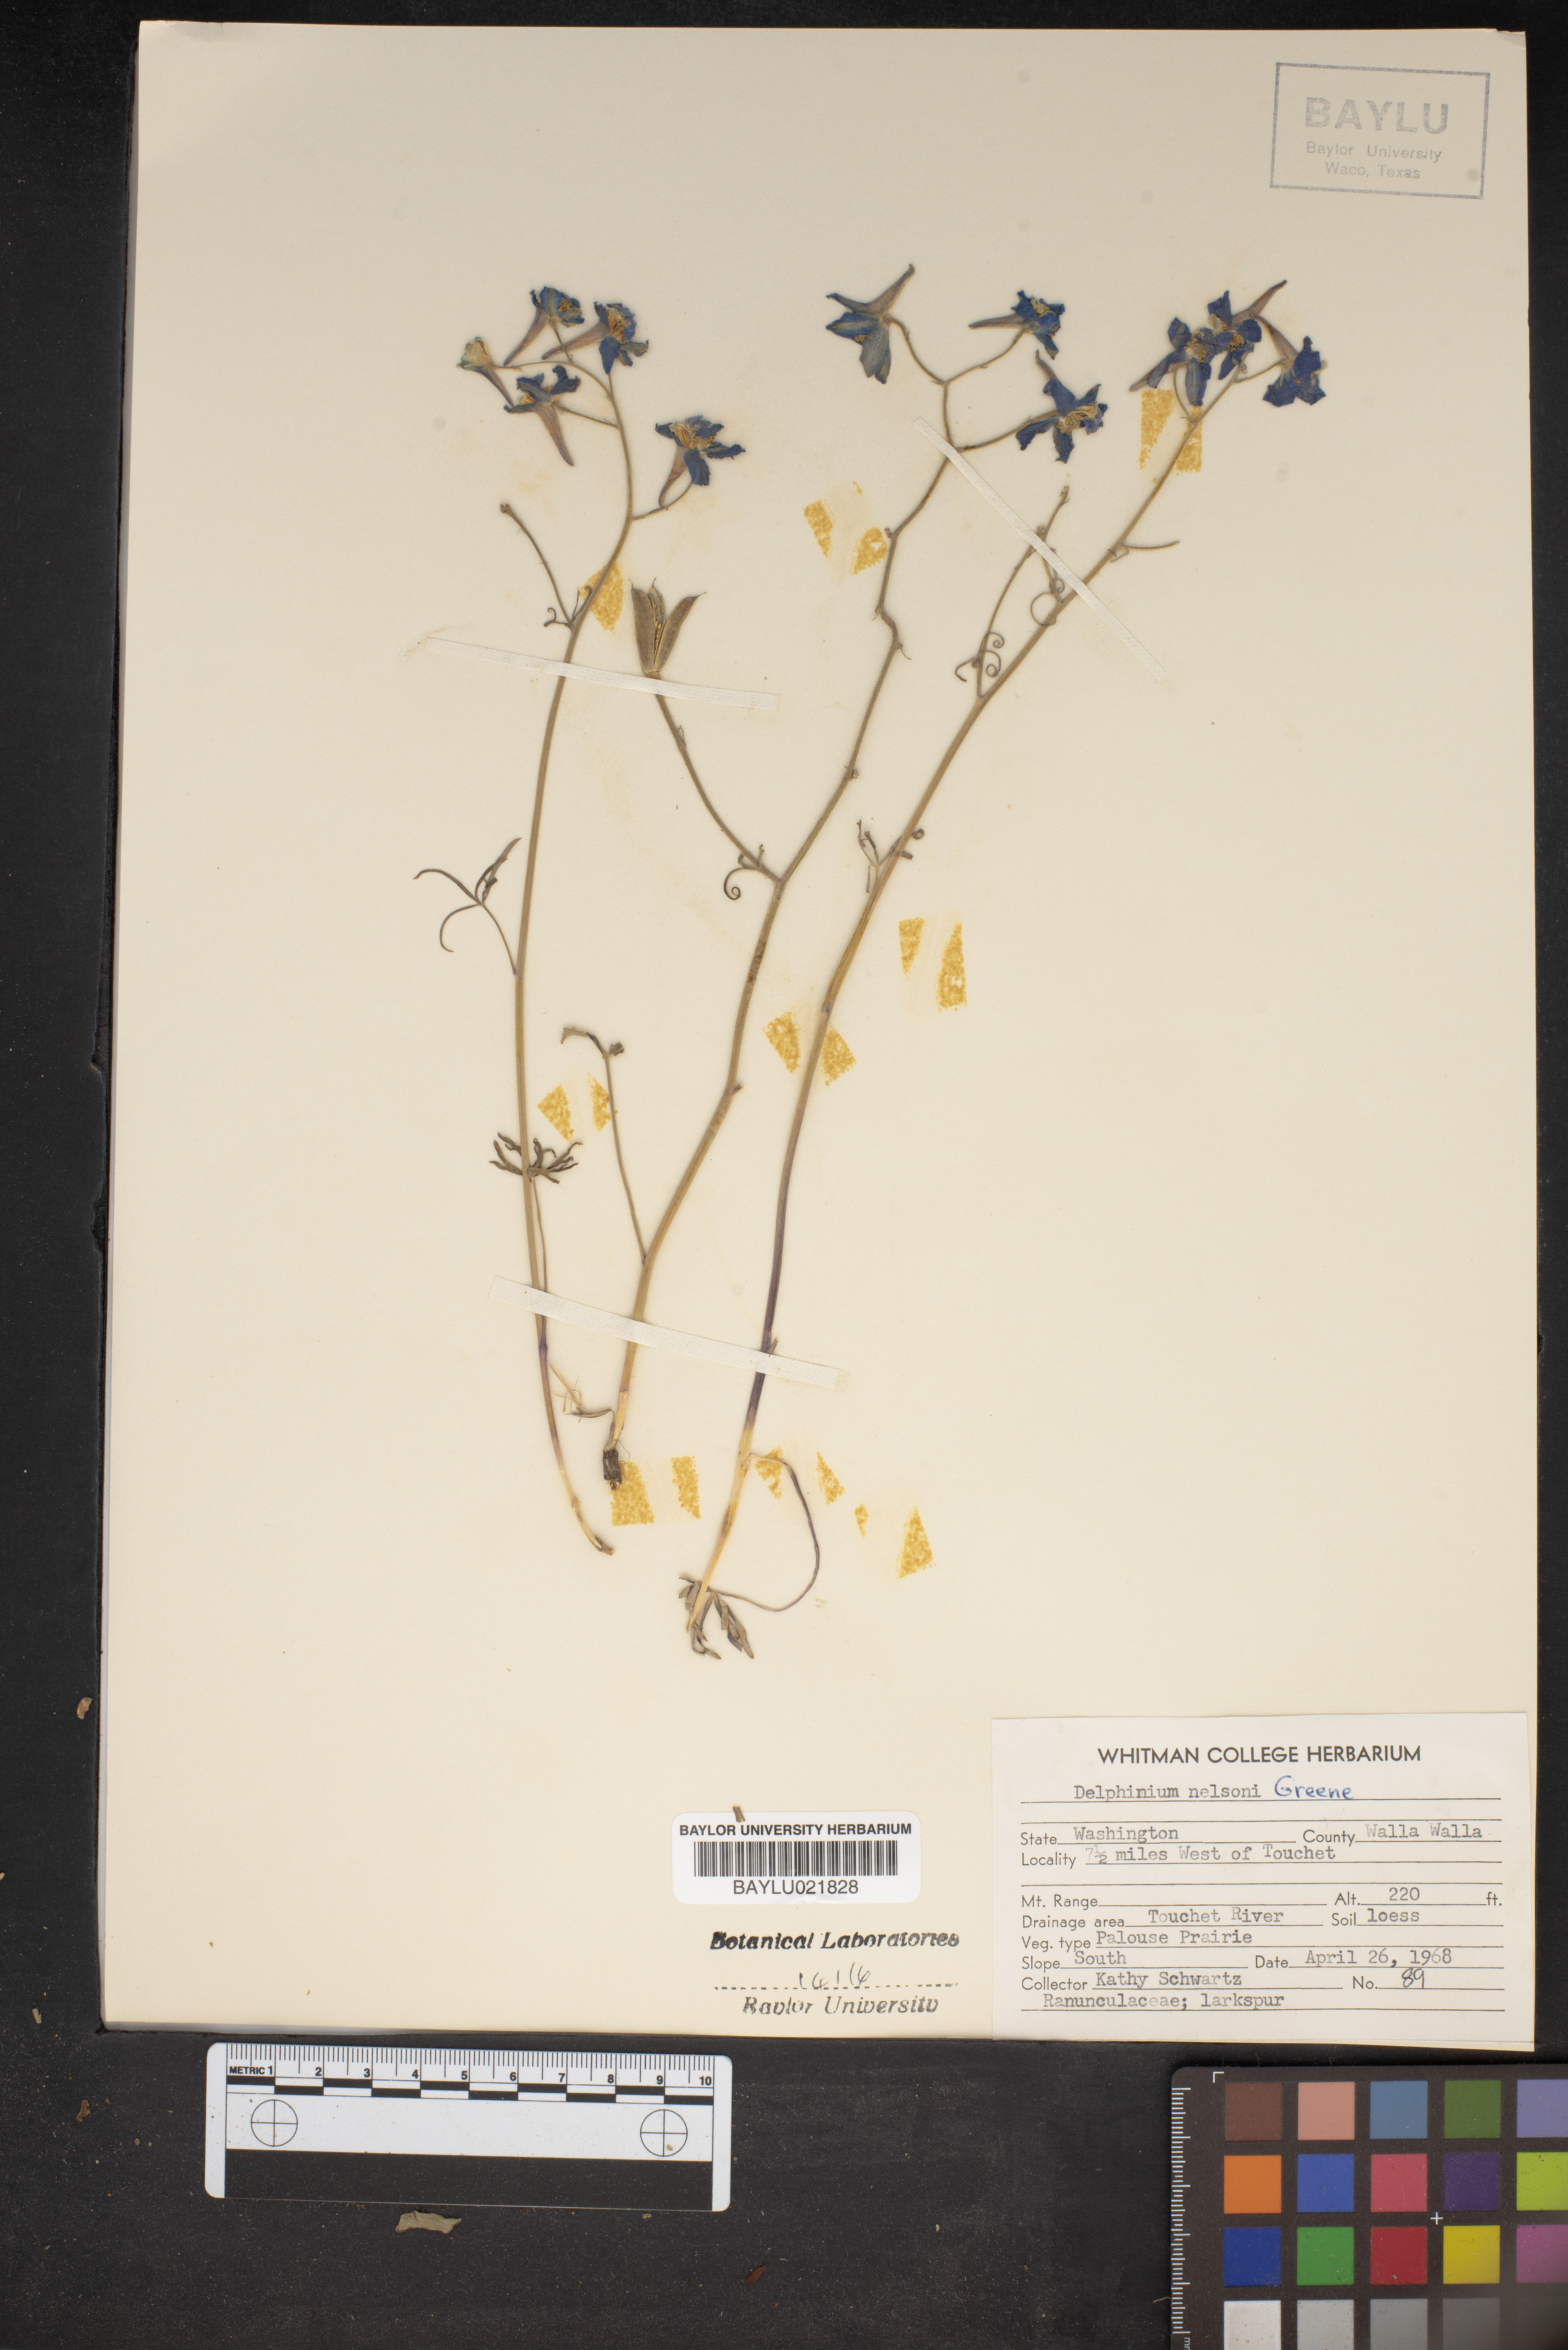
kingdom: Plantae
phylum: Tracheophyta
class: Magnoliopsida
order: Ranunculales
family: Ranunculaceae
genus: Delphinium
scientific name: Delphinium nuttallianum
